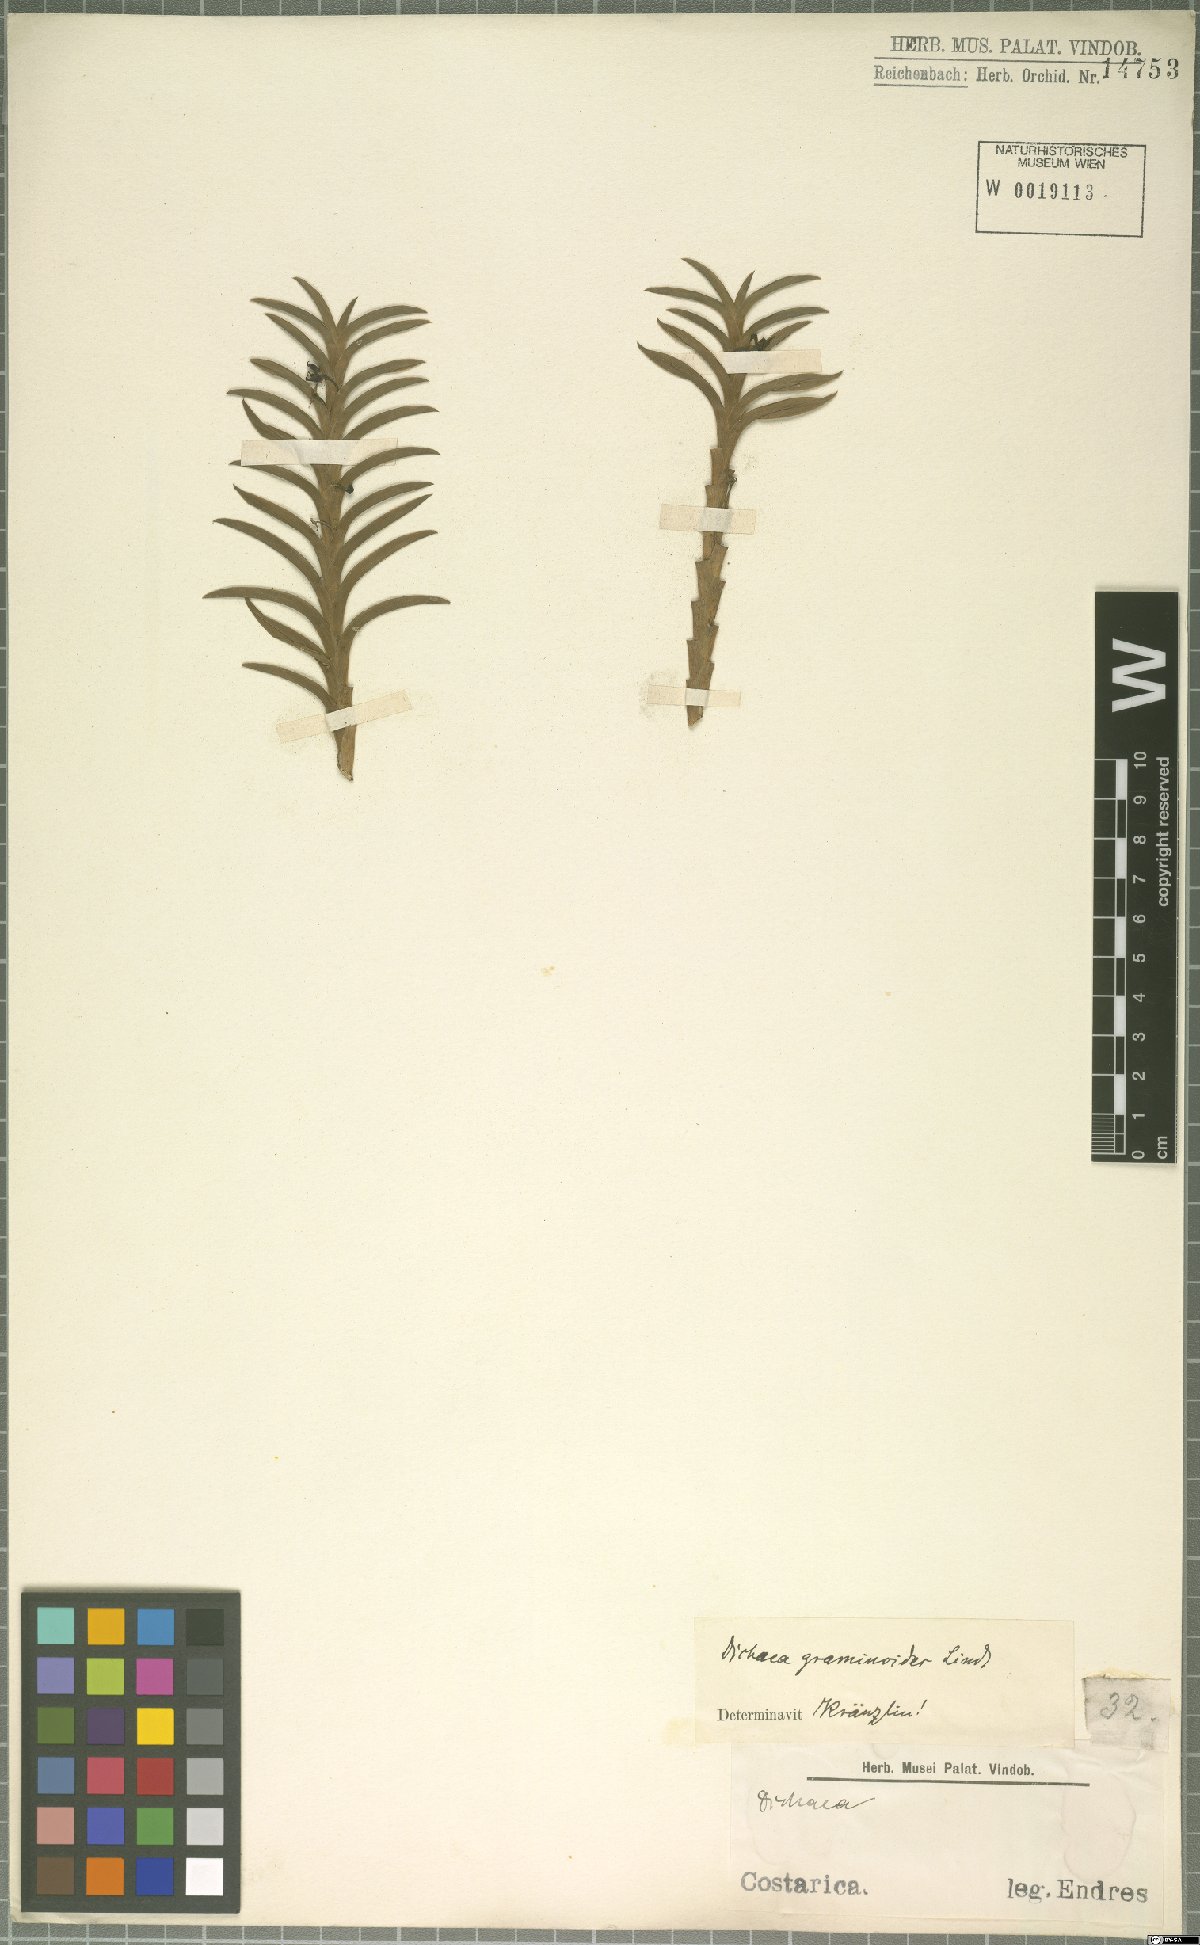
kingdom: Plantae
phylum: Tracheophyta
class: Liliopsida
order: Asparagales
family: Orchidaceae
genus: Dichaea
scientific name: Dichaea graminoides
